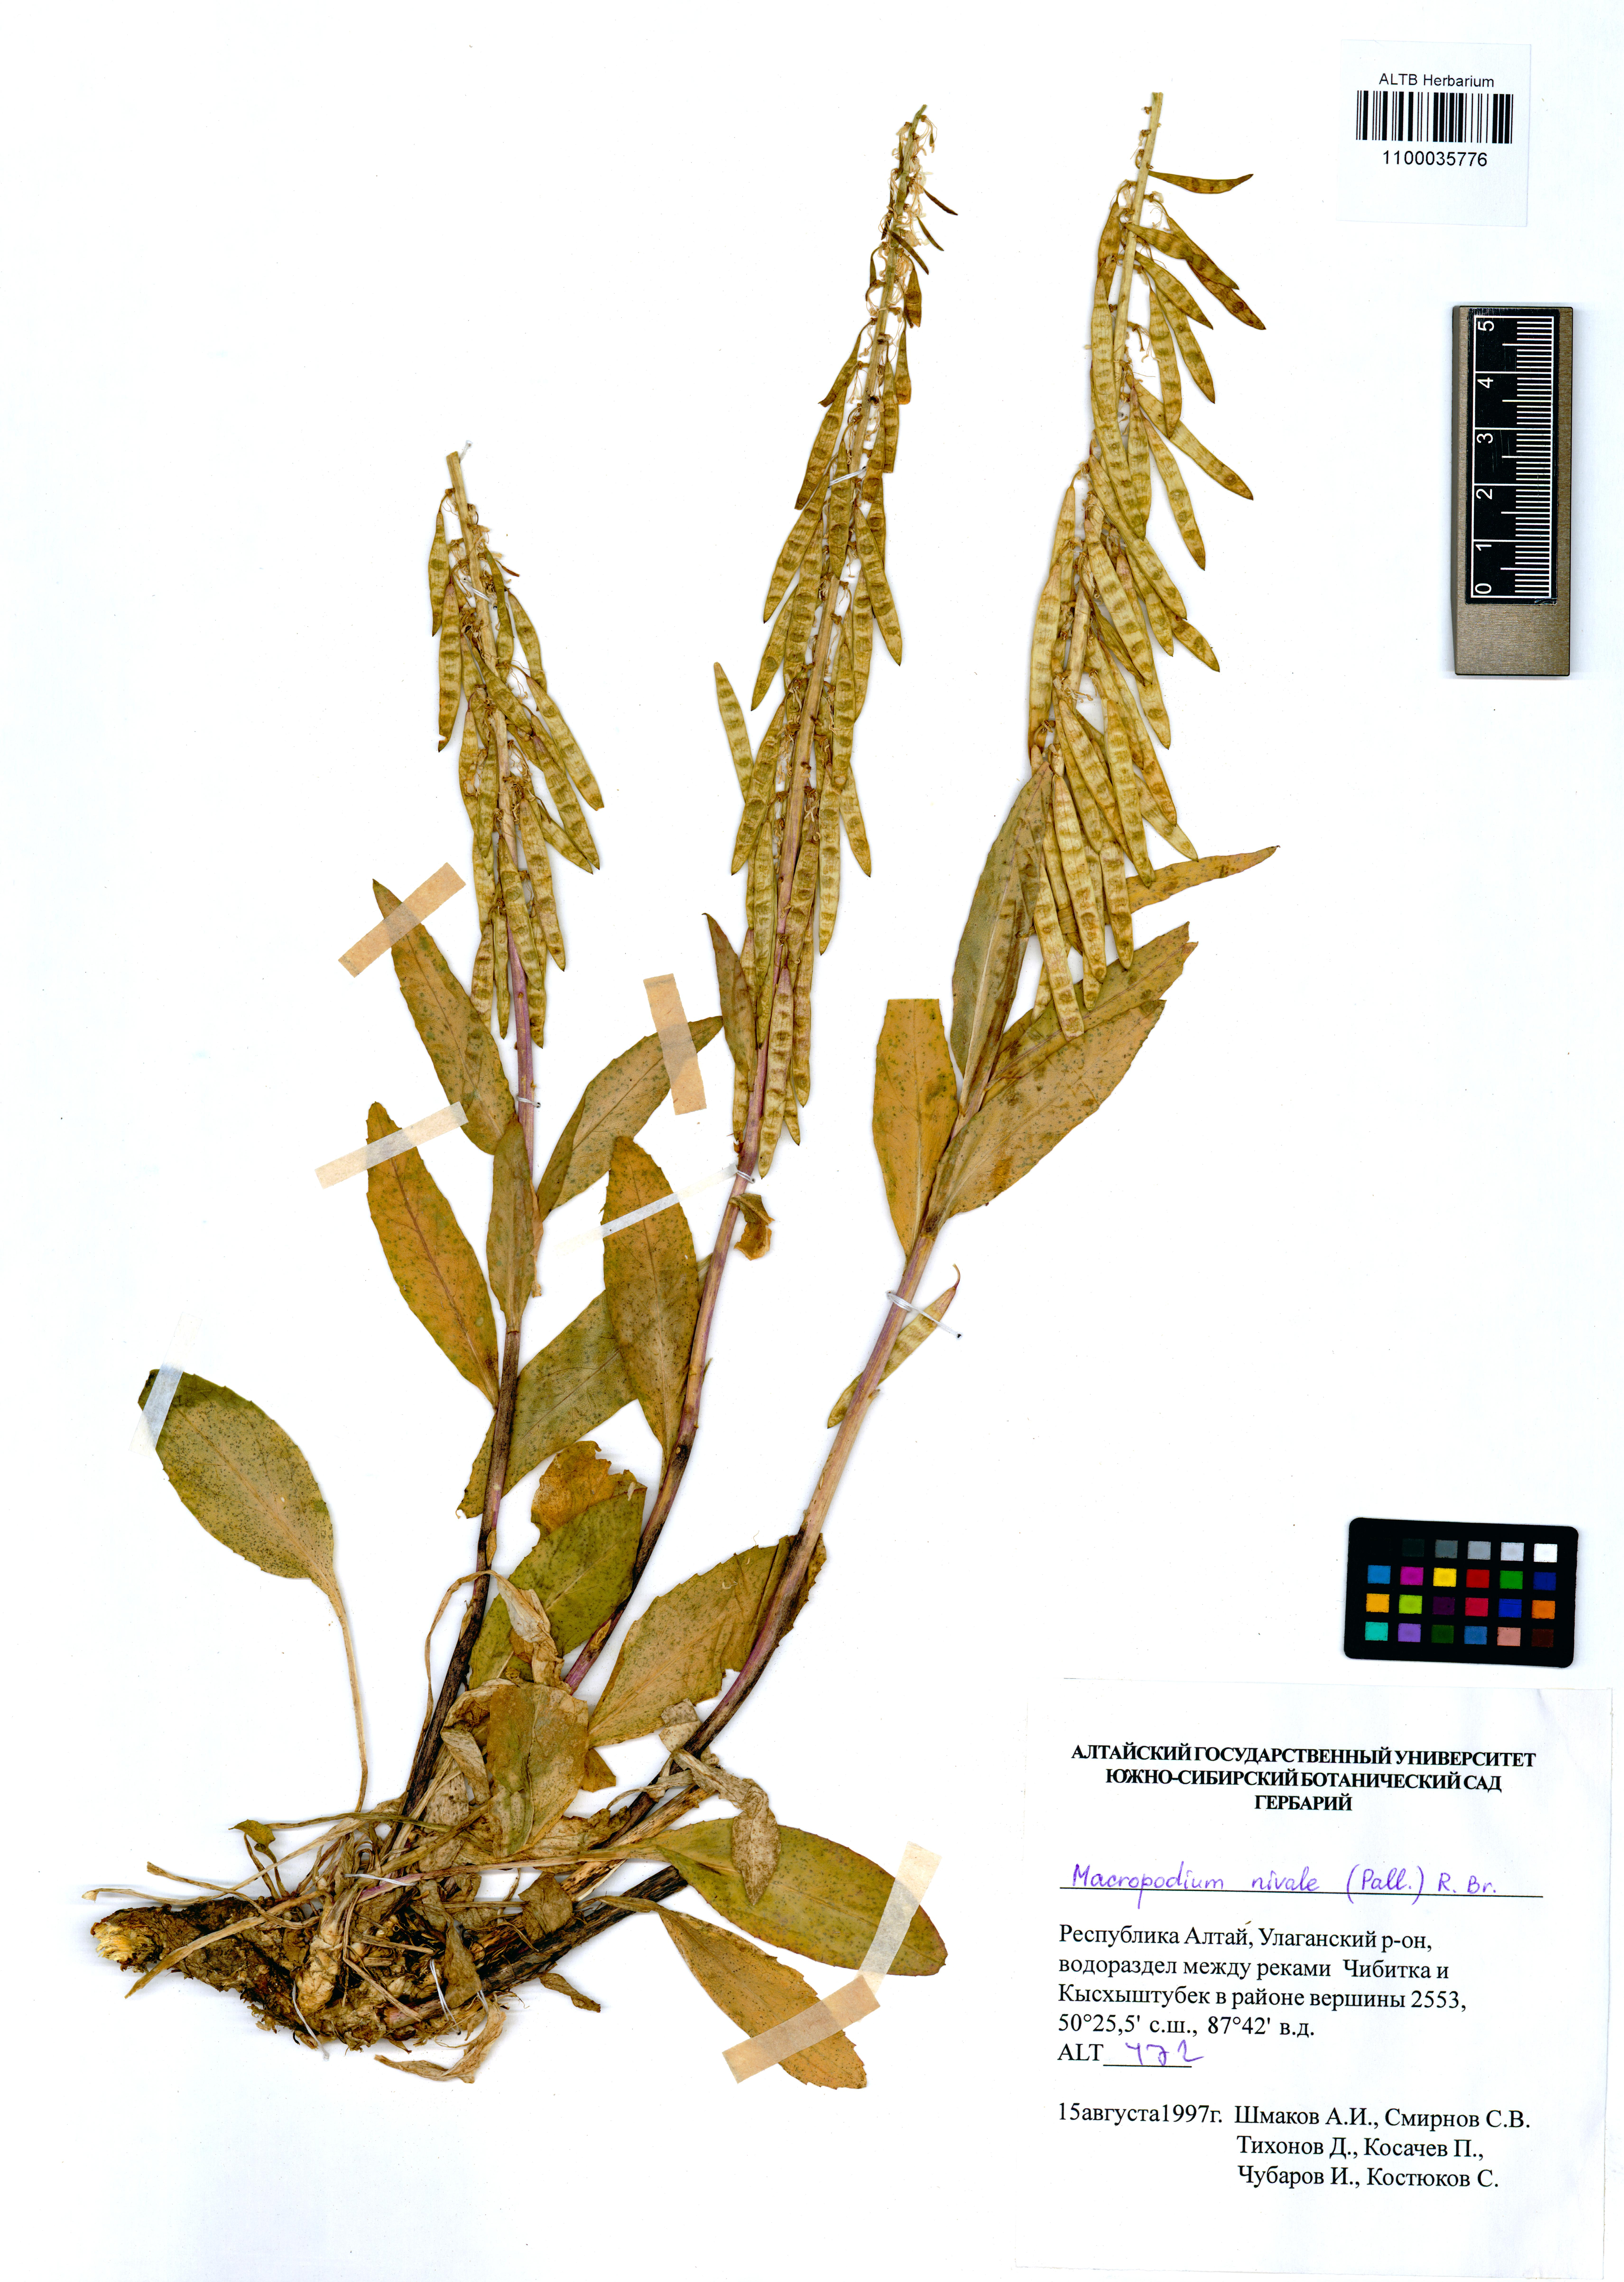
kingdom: Plantae
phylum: Tracheophyta
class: Magnoliopsida
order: Brassicales
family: Brassicaceae
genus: Macropodium
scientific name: Macropodium nivale
